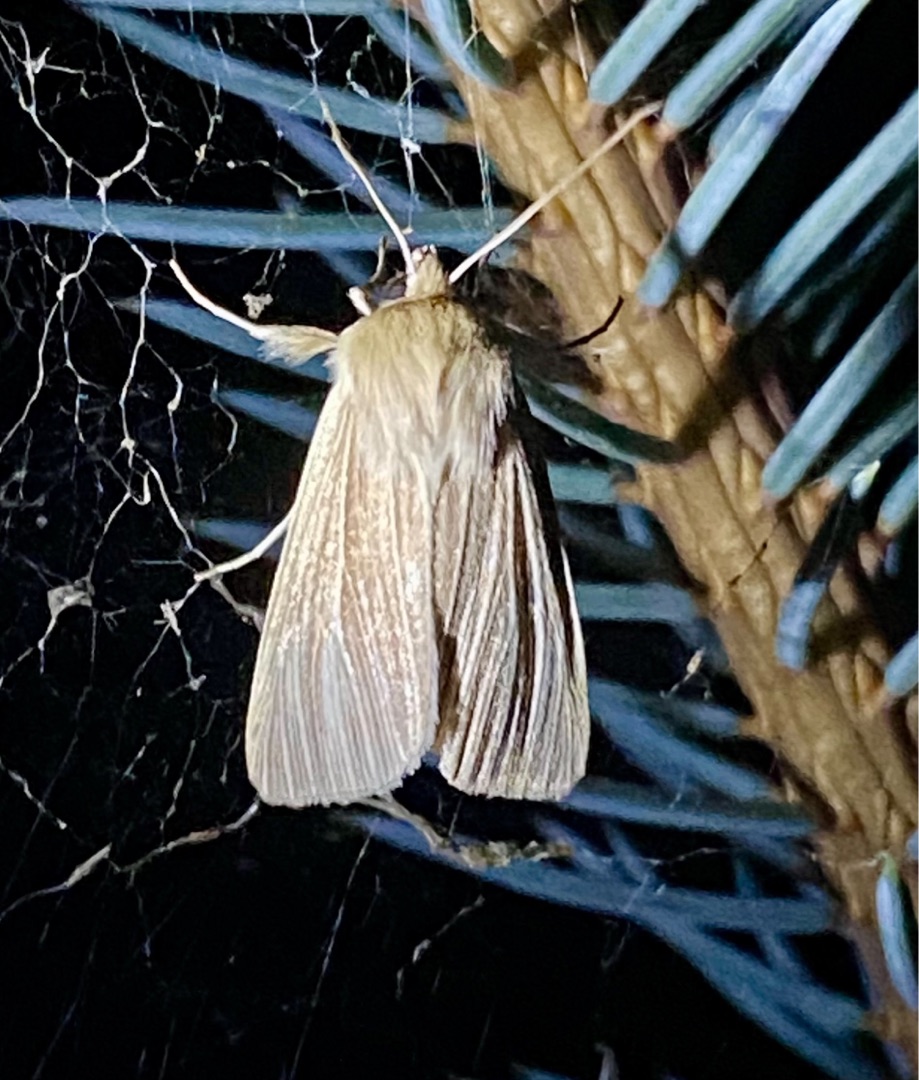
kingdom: Animalia
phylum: Arthropoda
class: Insecta
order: Lepidoptera
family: Noctuidae
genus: Mythimna
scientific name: Mythimna pallens
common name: Halmugle
